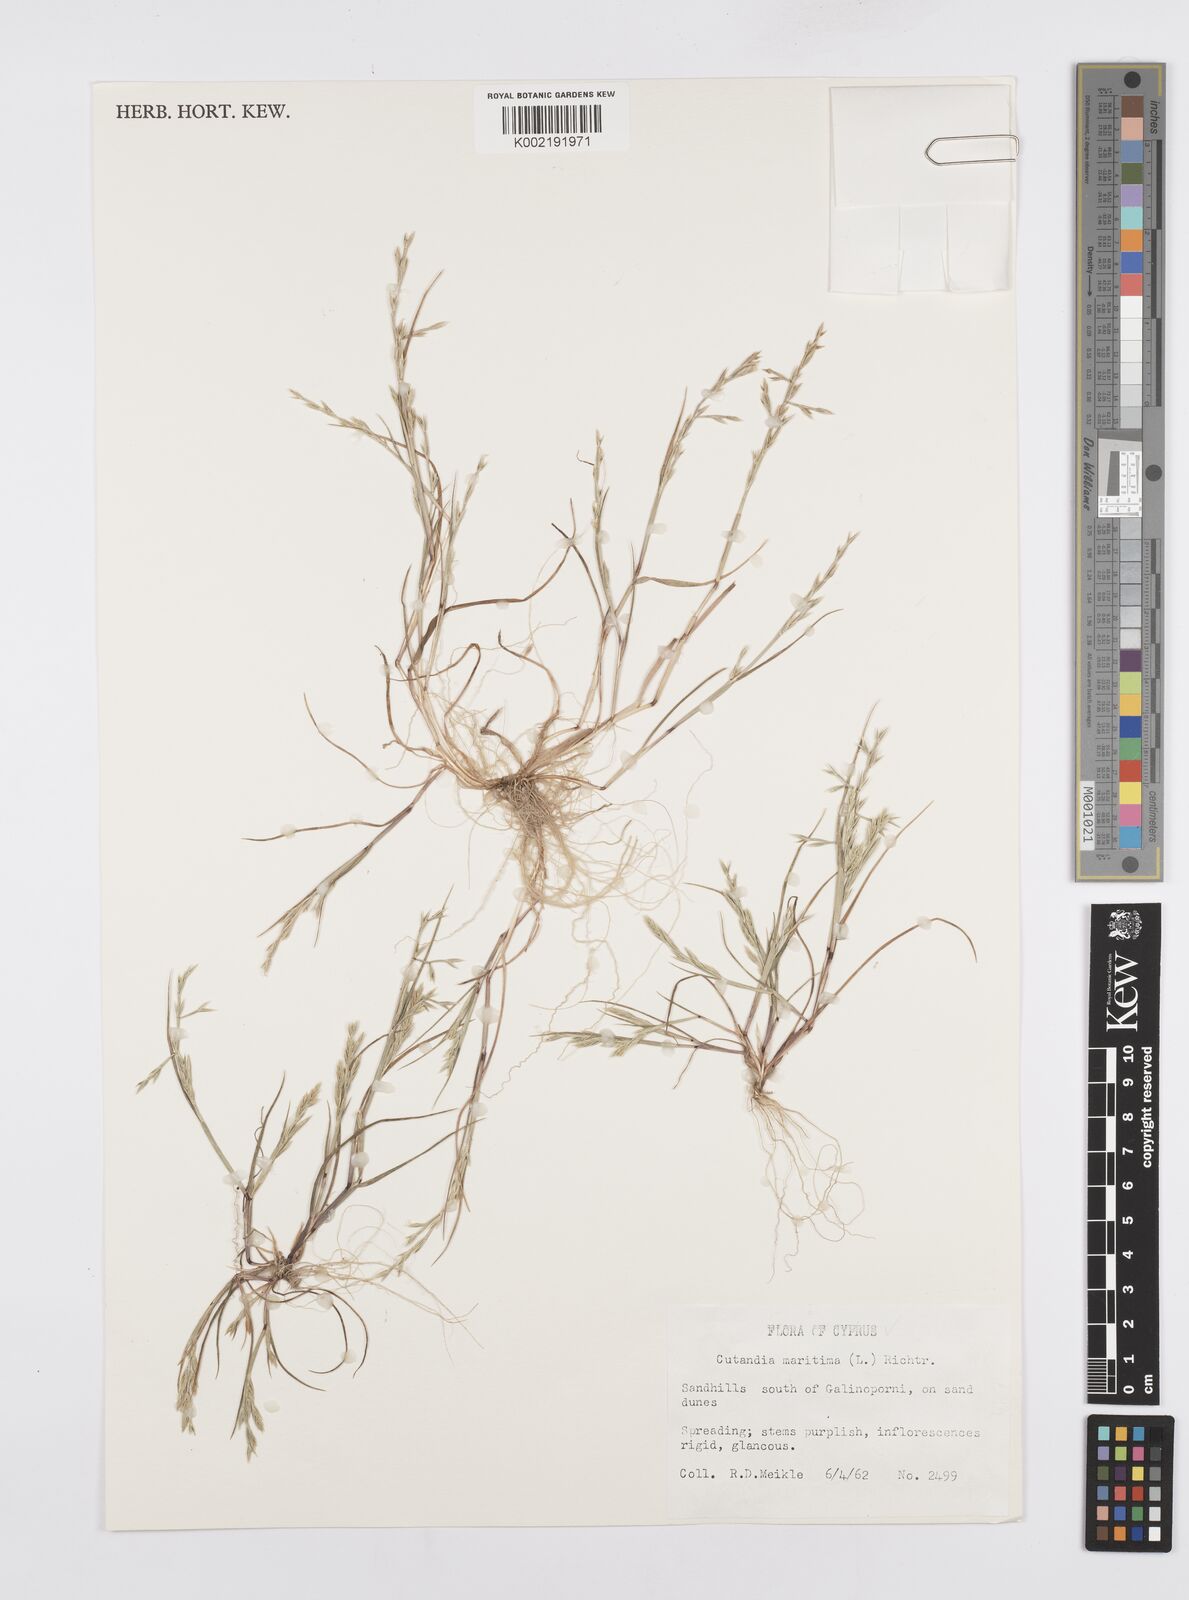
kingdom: Plantae
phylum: Tracheophyta
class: Liliopsida
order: Poales
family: Poaceae
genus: Cutandia
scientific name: Cutandia maritima
